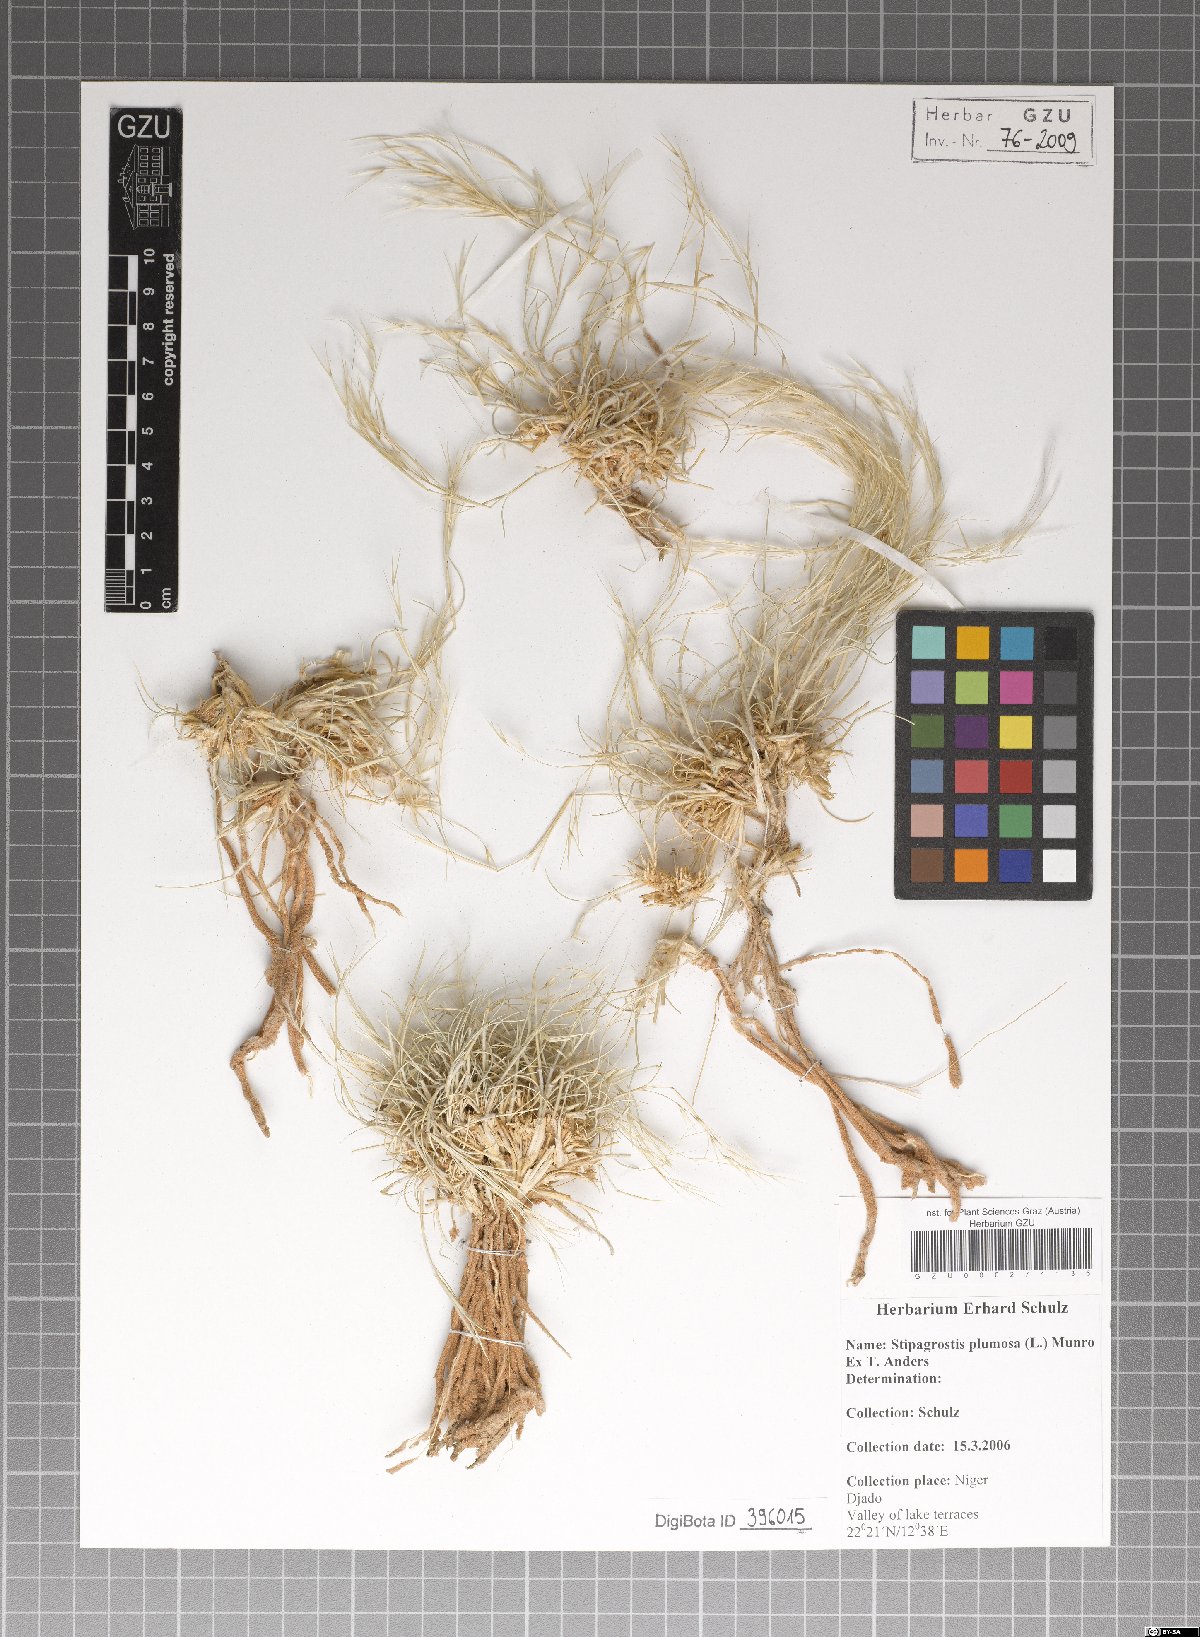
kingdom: Plantae
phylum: Tracheophyta
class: Liliopsida
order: Poales
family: Poaceae
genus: Stipagrostis
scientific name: Stipagrostis plumosa
